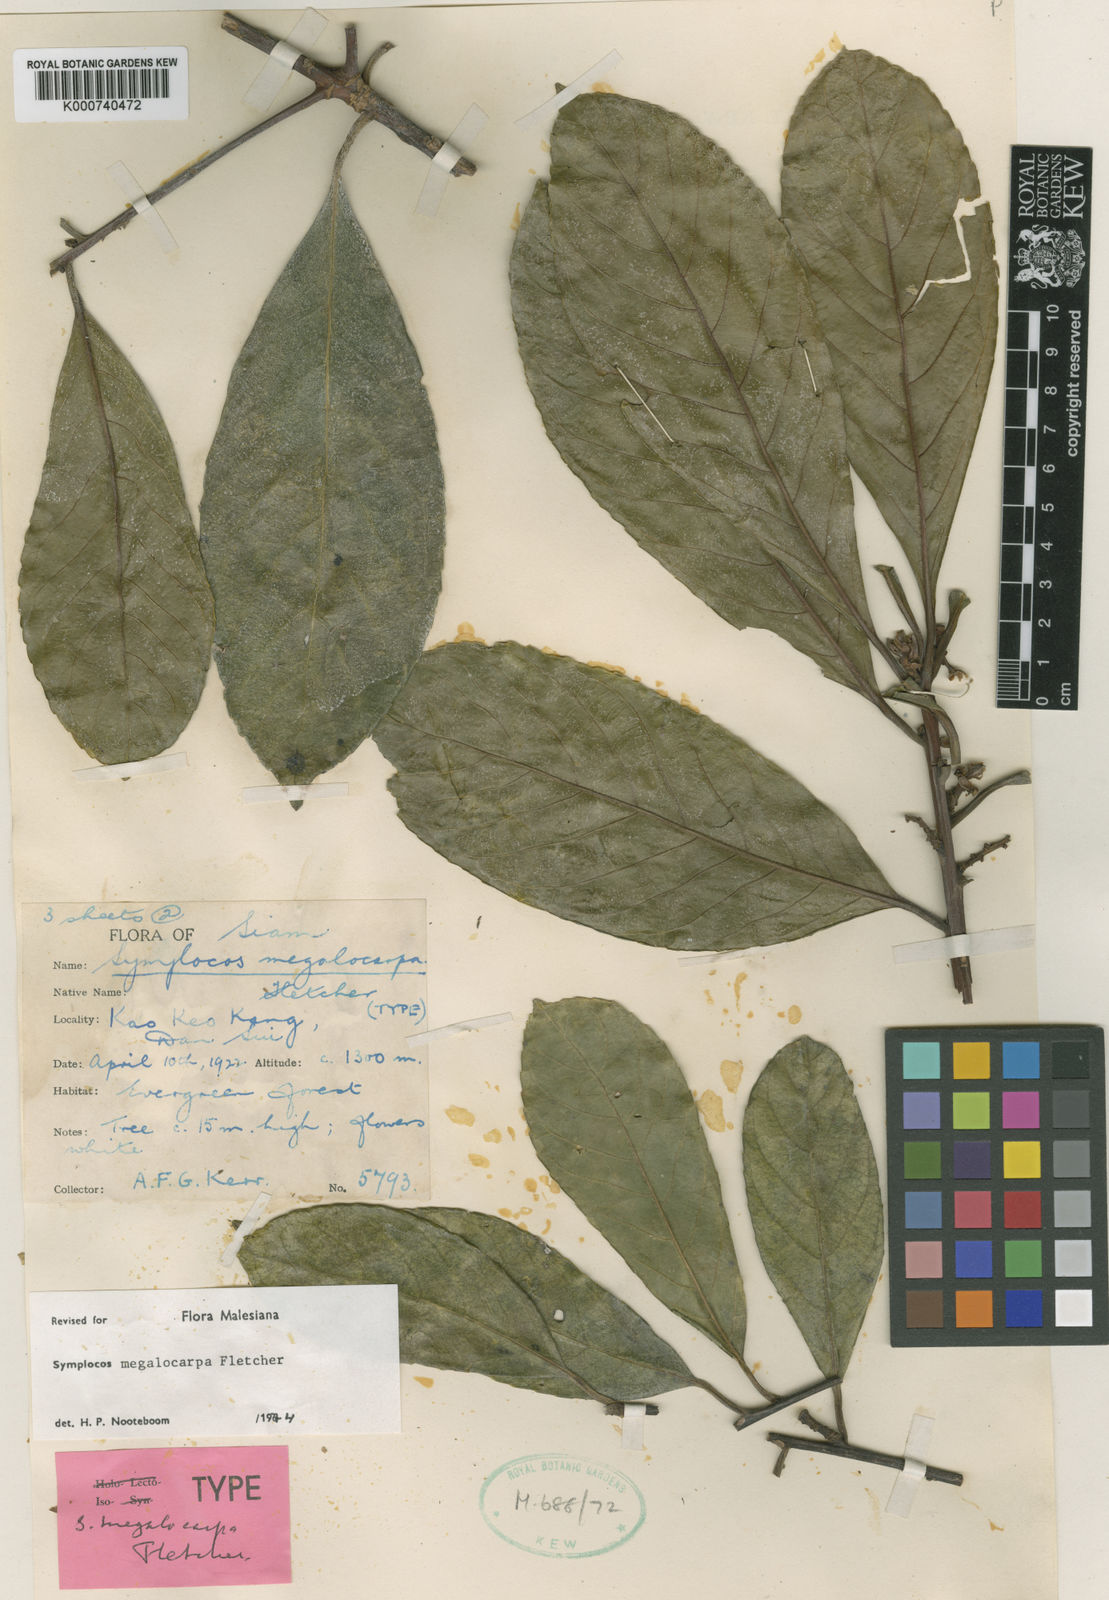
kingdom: Plantae
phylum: Tracheophyta
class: Magnoliopsida
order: Ericales
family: Symplocaceae
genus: Symplocos
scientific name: Symplocos sulcata
